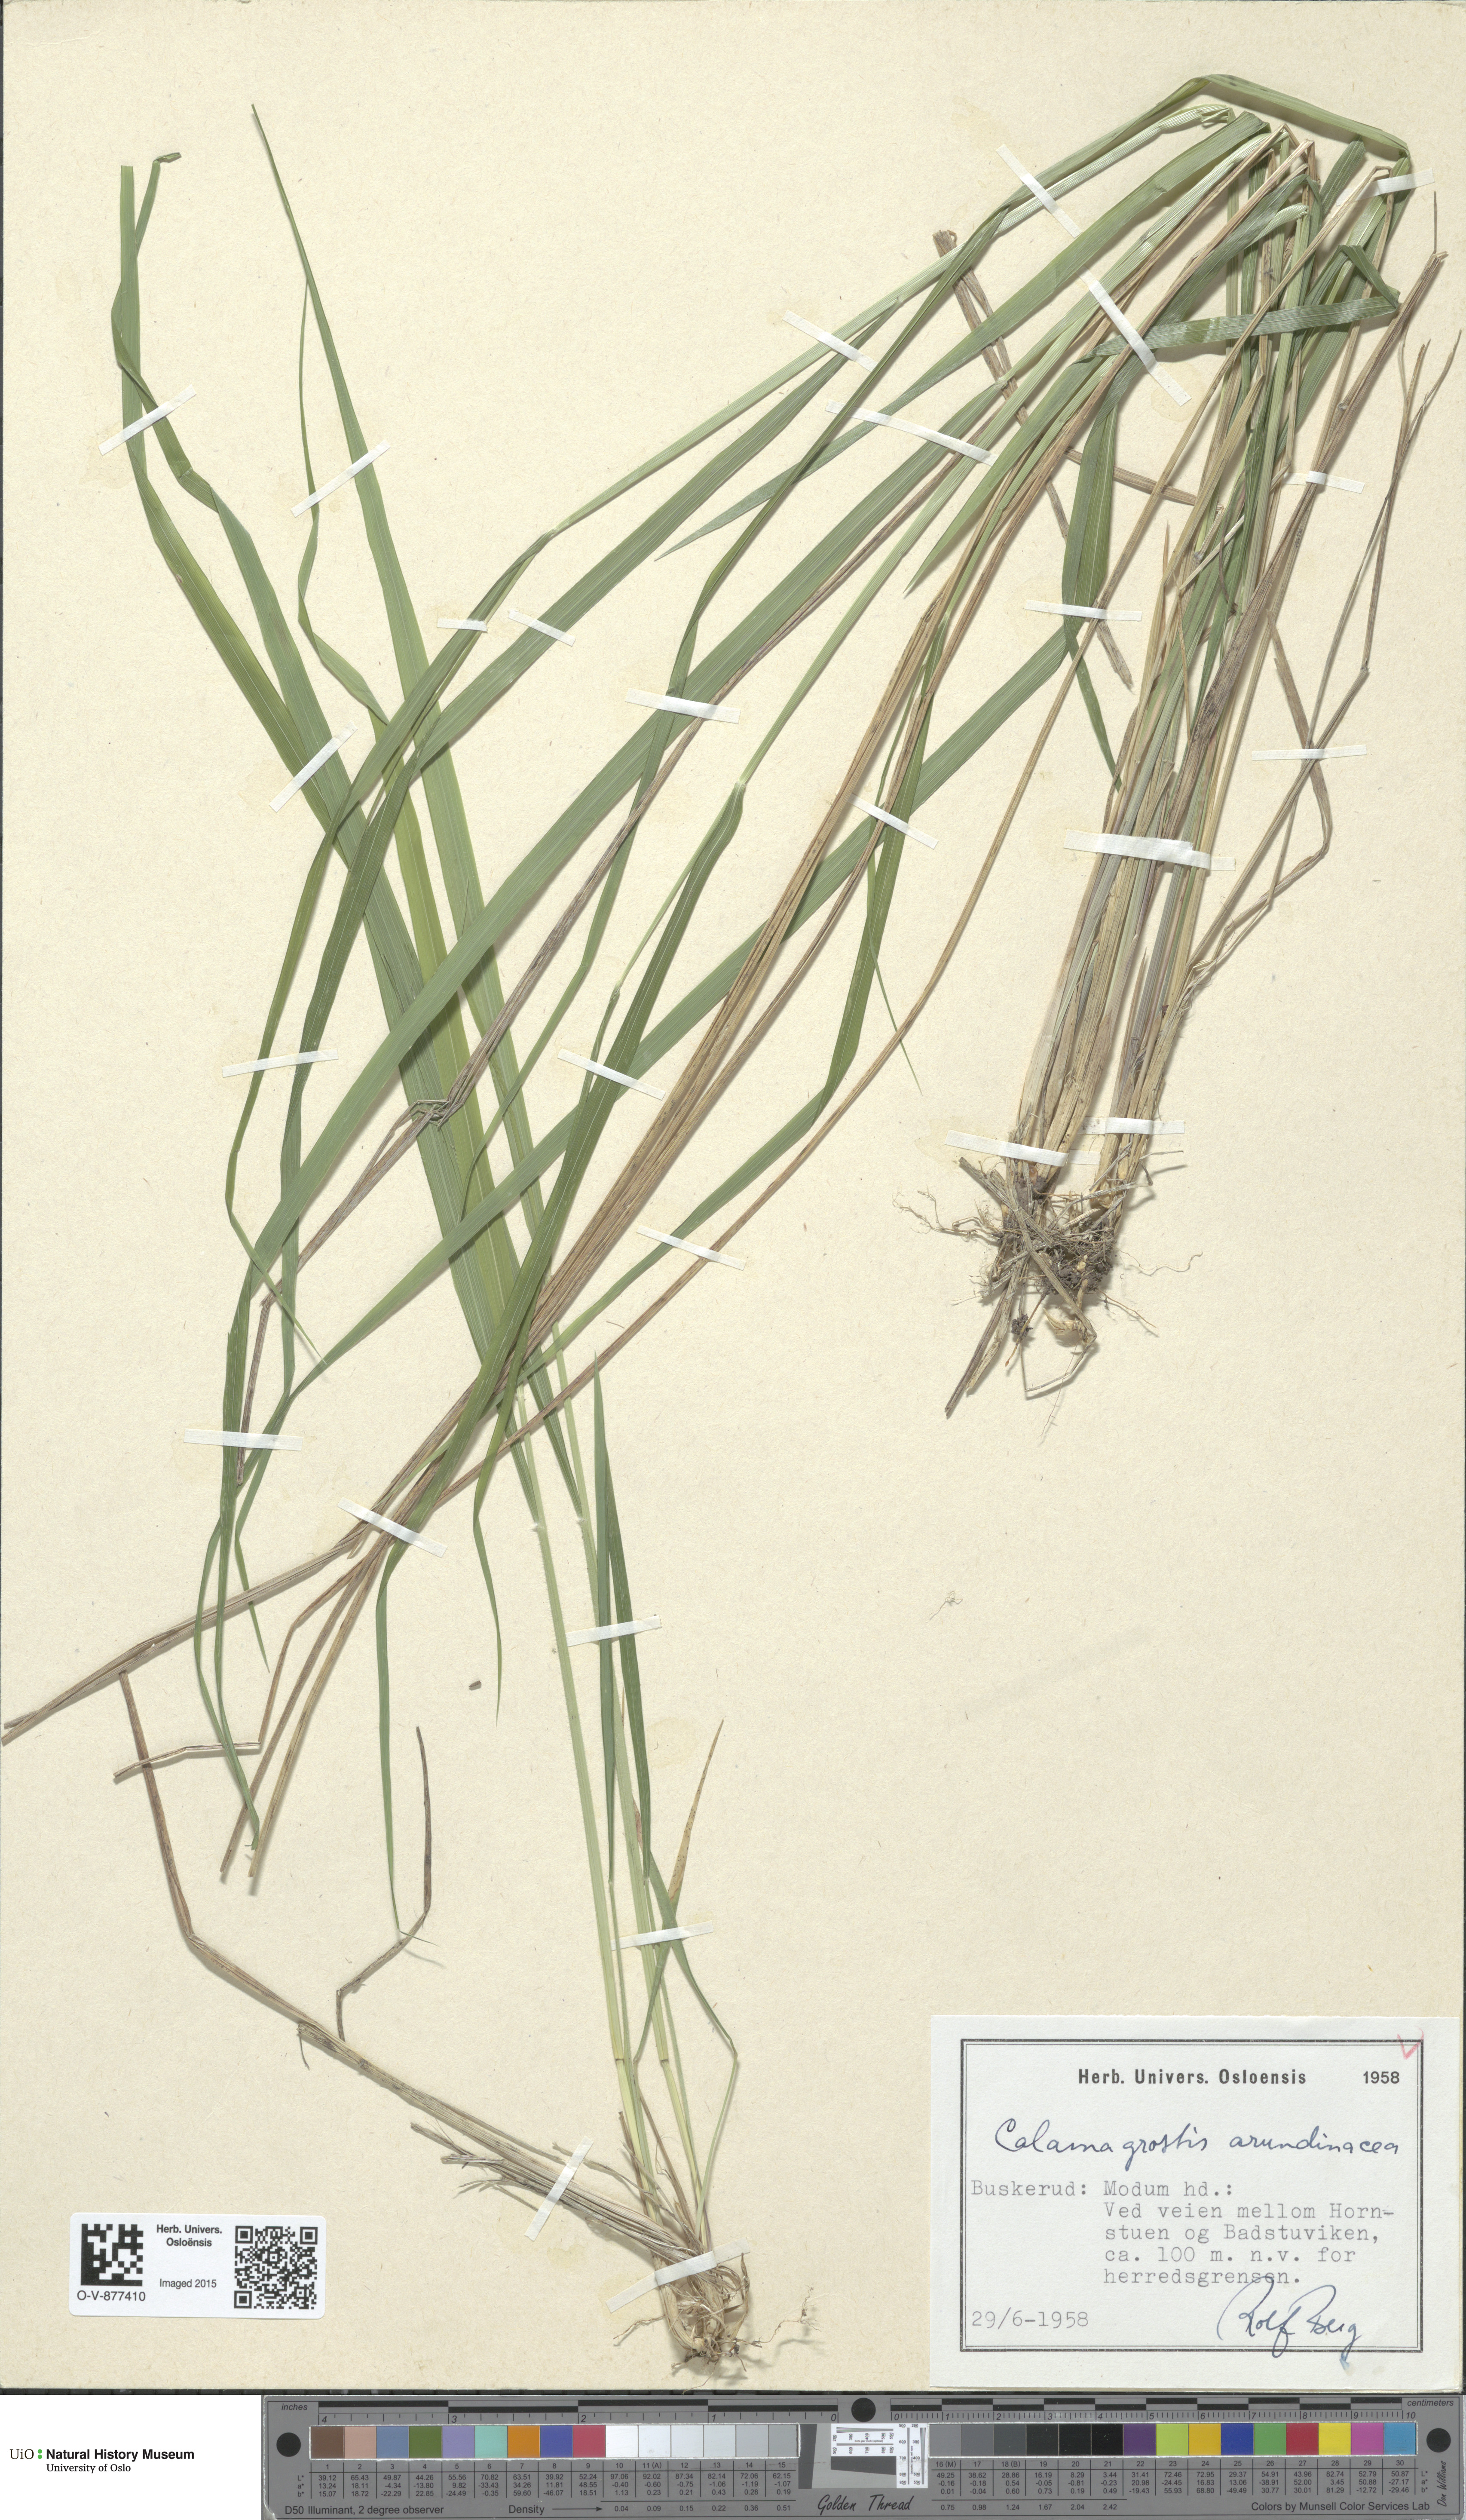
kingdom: Plantae
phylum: Tracheophyta
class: Liliopsida
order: Poales
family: Poaceae
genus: Calamagrostis
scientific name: Calamagrostis arundinacea
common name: Metskastik
